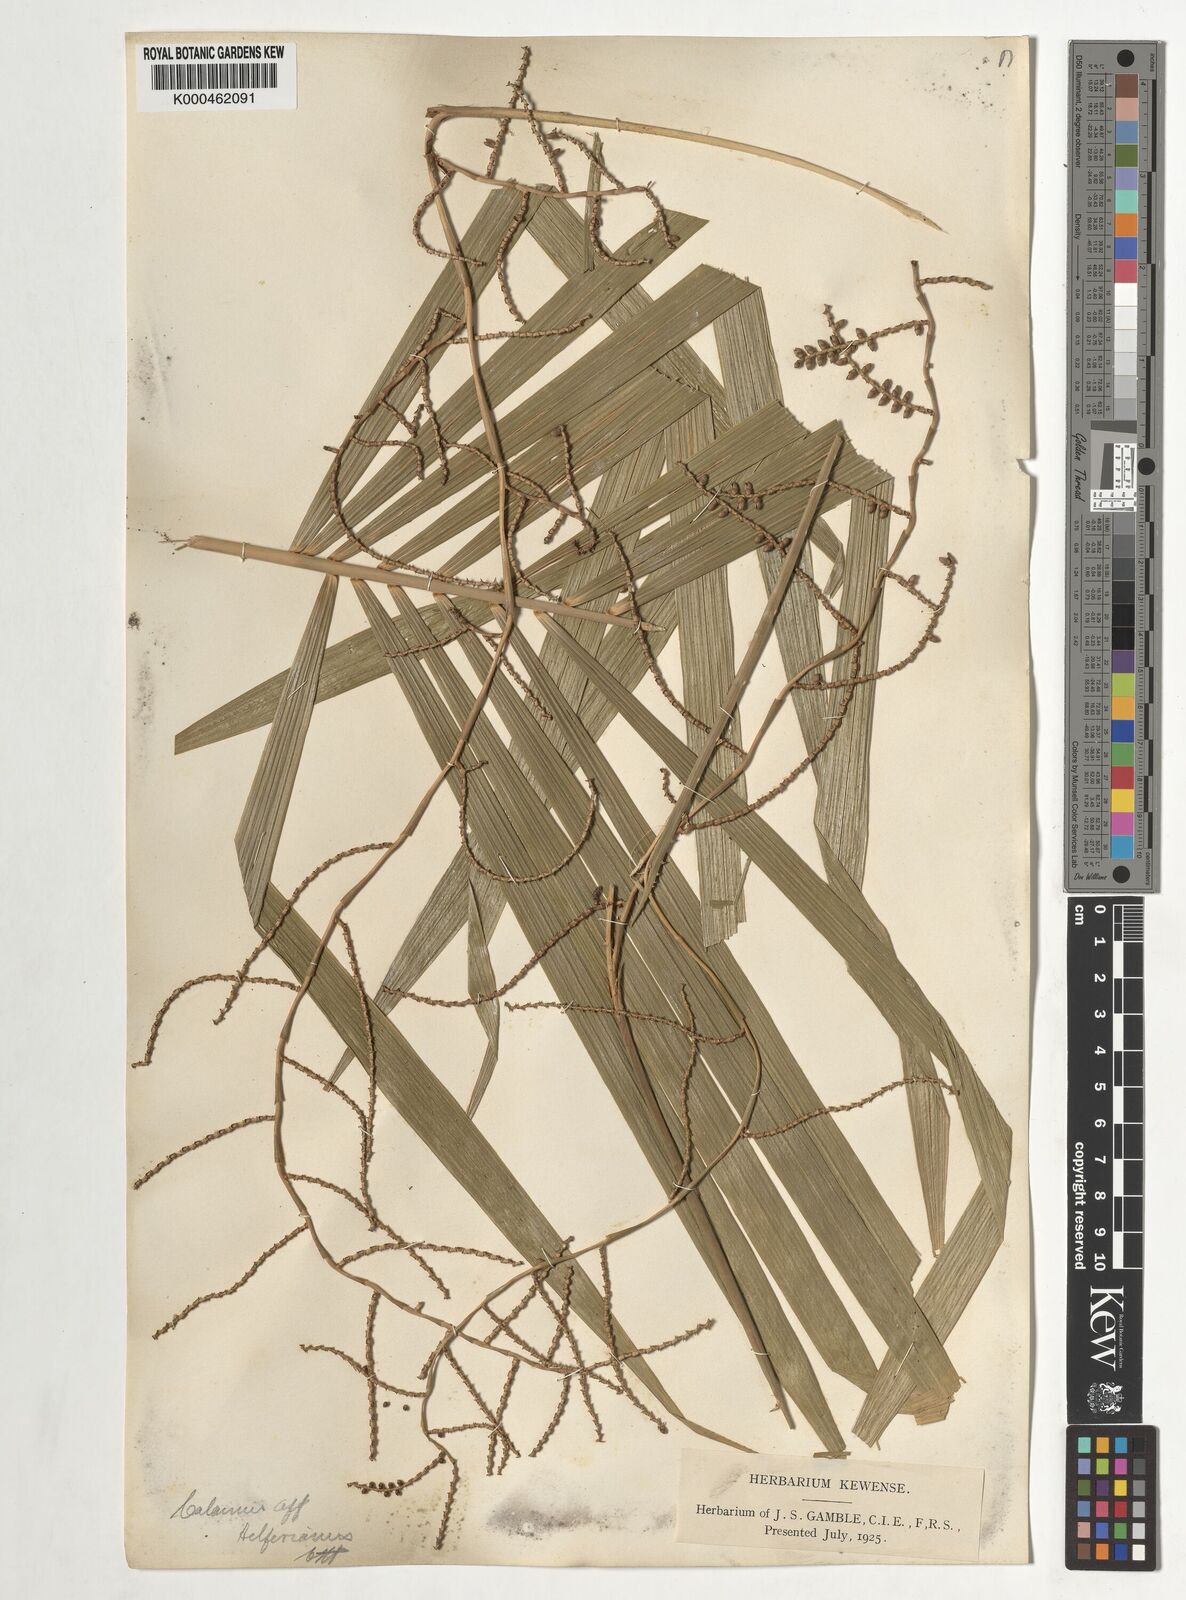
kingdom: Plantae
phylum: Tracheophyta
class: Liliopsida
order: Arecales
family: Arecaceae
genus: Calamus
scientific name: Calamus helferianus
